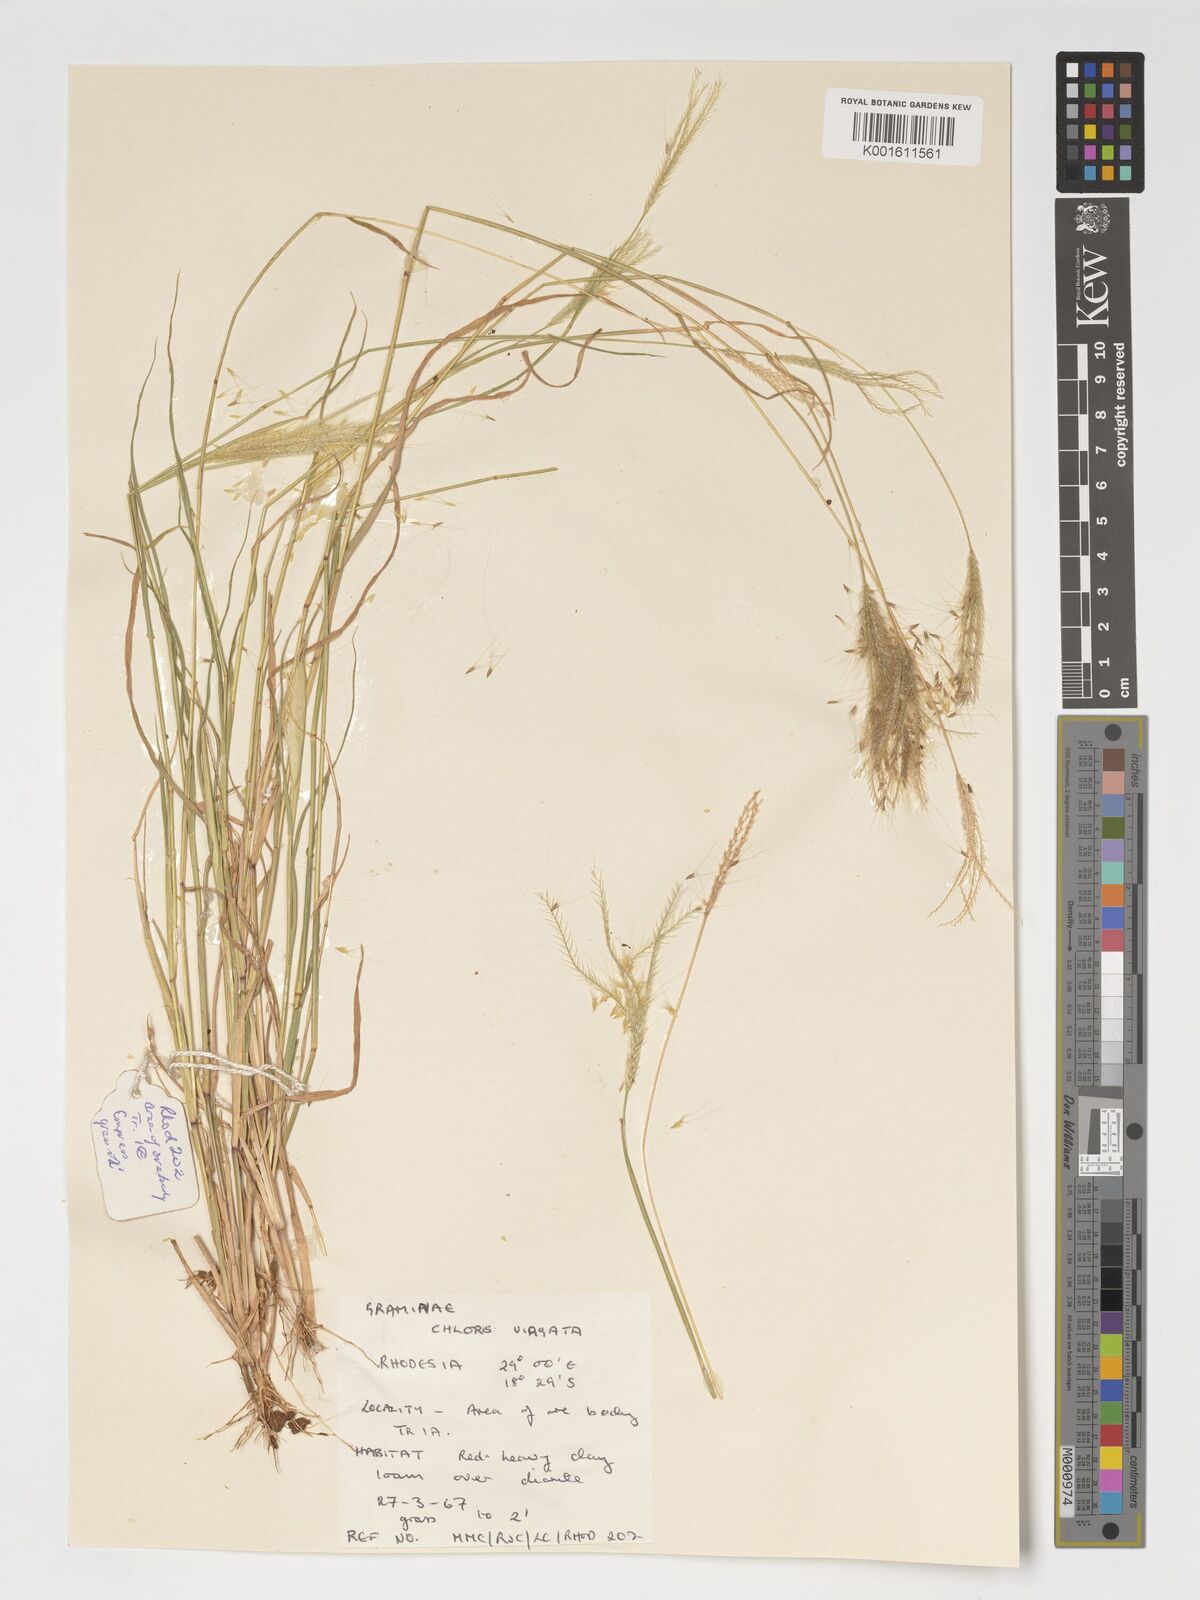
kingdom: Plantae
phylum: Tracheophyta
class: Liliopsida
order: Poales
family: Poaceae
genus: Chloris
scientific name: Chloris virgata
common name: Feathery rhodes-grass
